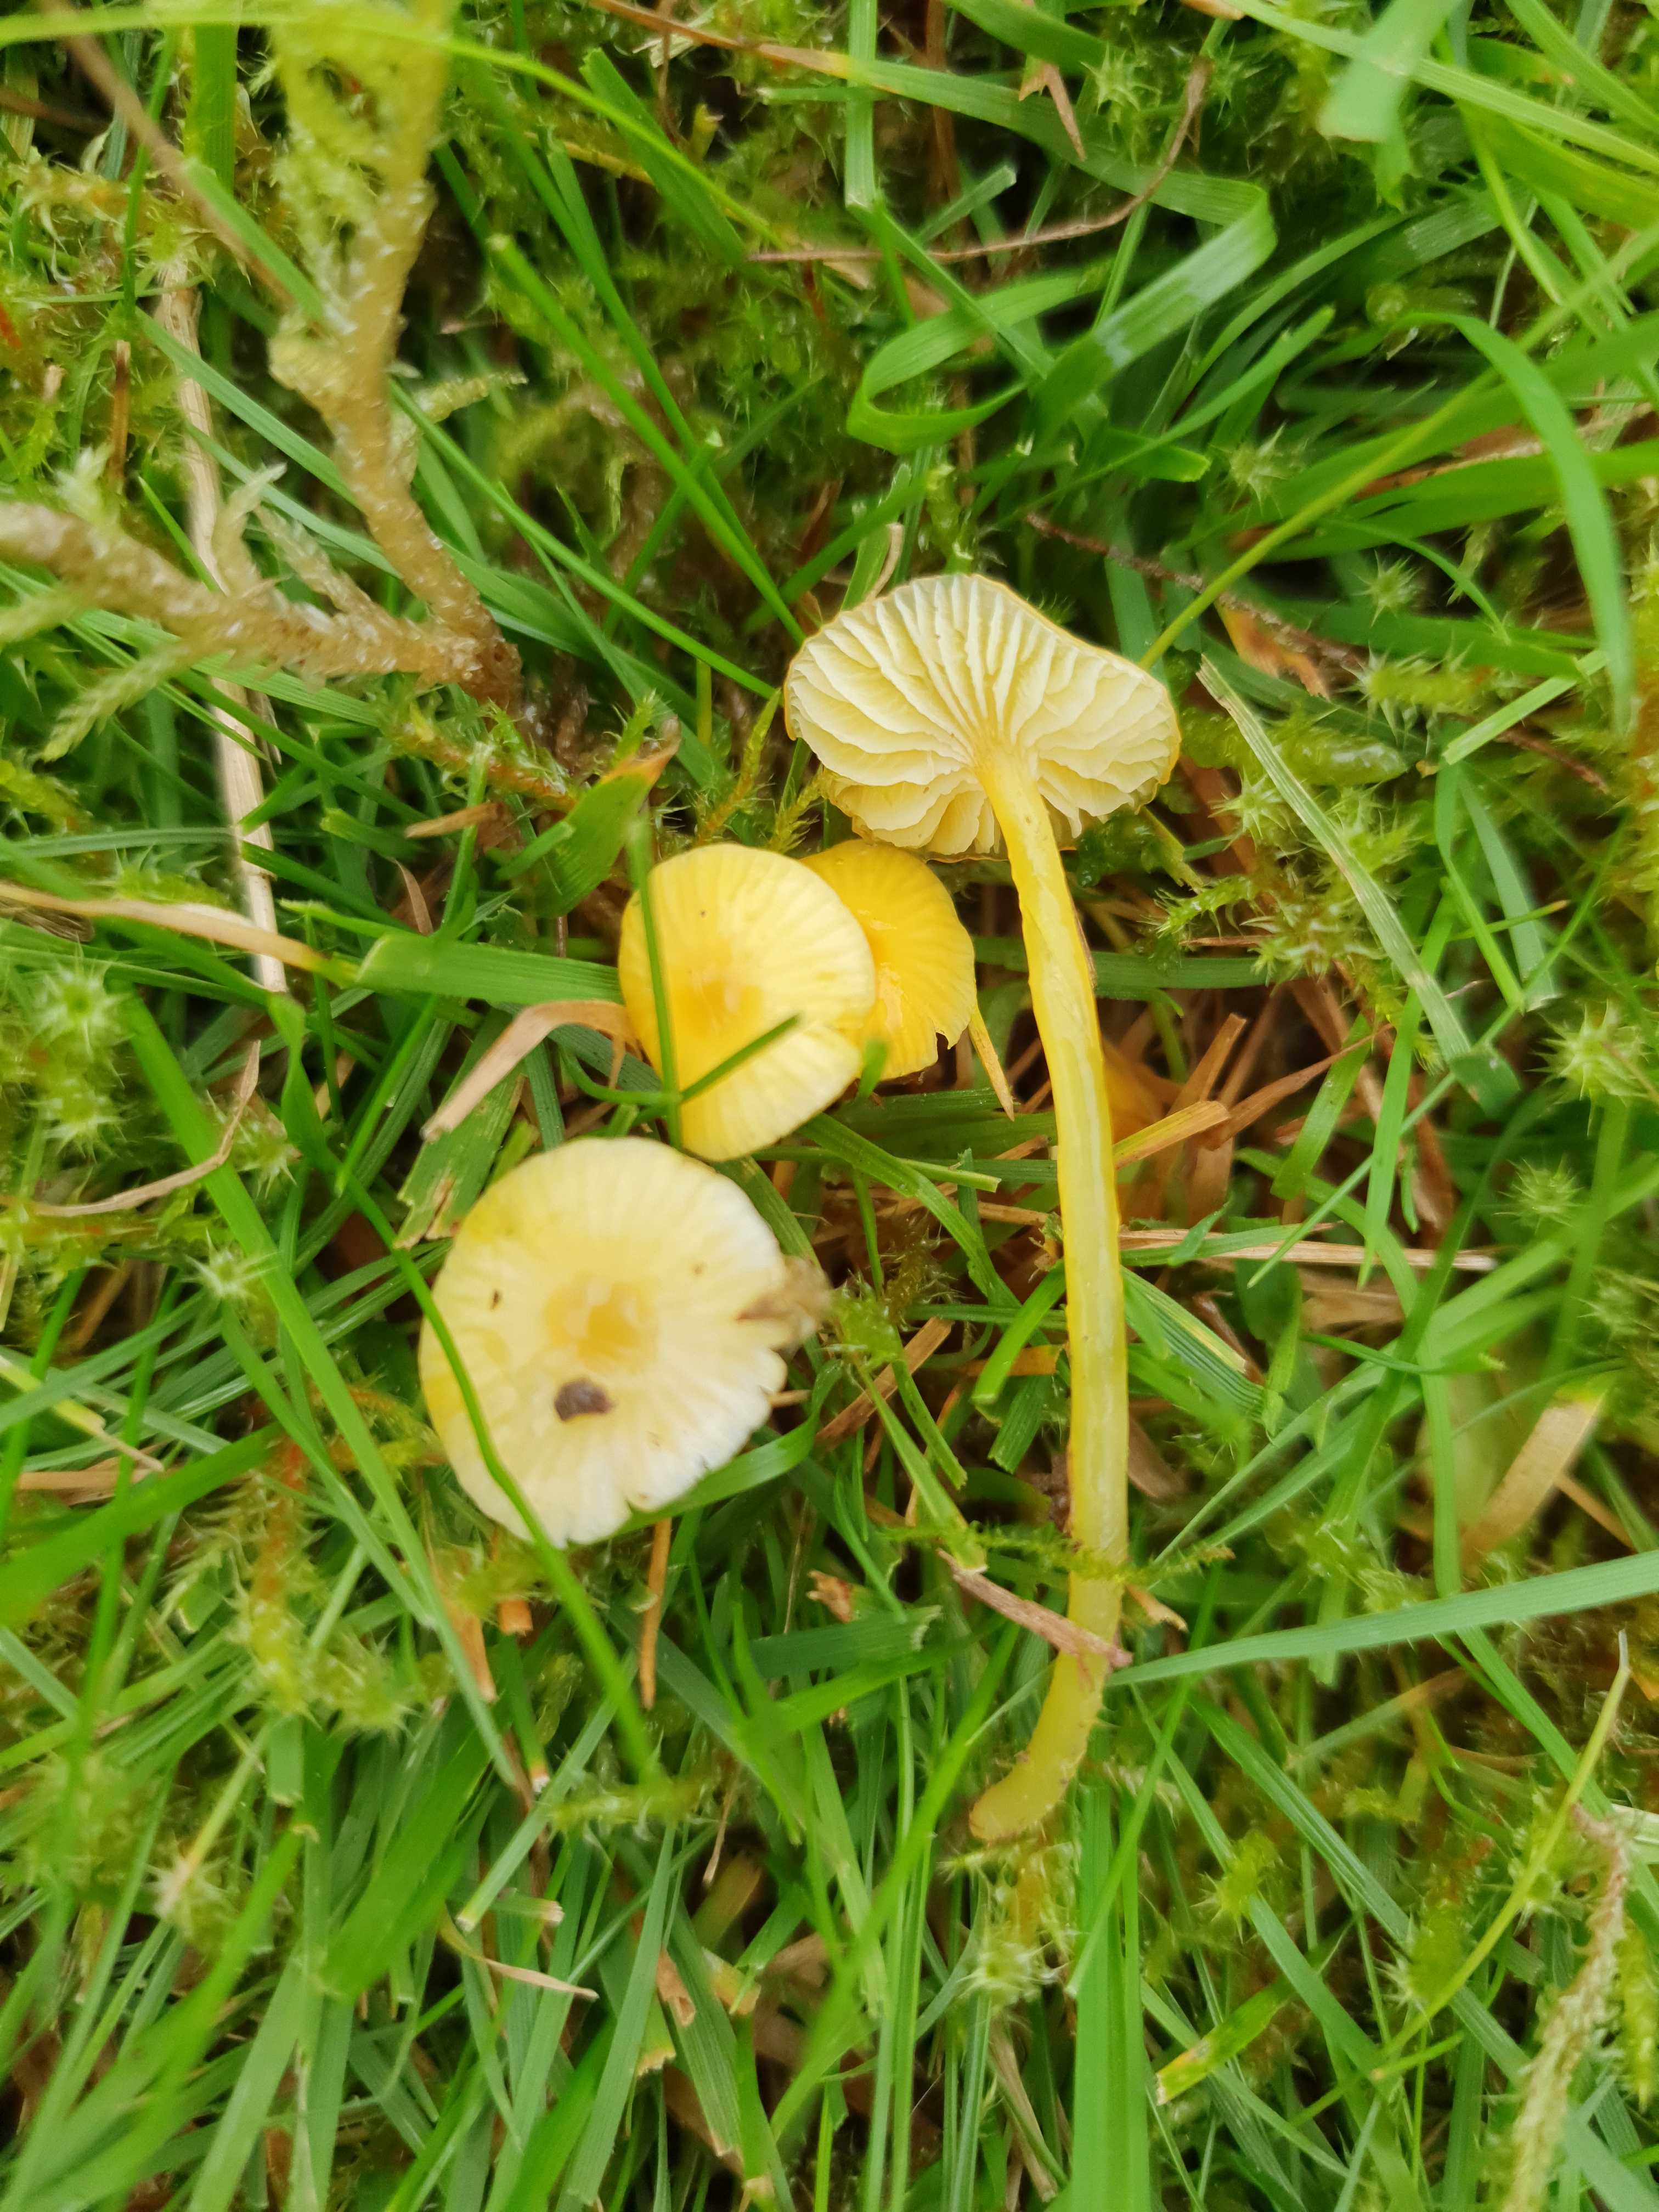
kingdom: Fungi
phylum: Basidiomycota
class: Agaricomycetes
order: Agaricales
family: Hygrophoraceae
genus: Hygrocybe
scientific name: Hygrocybe glutinipes
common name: slimstokket vokshat
